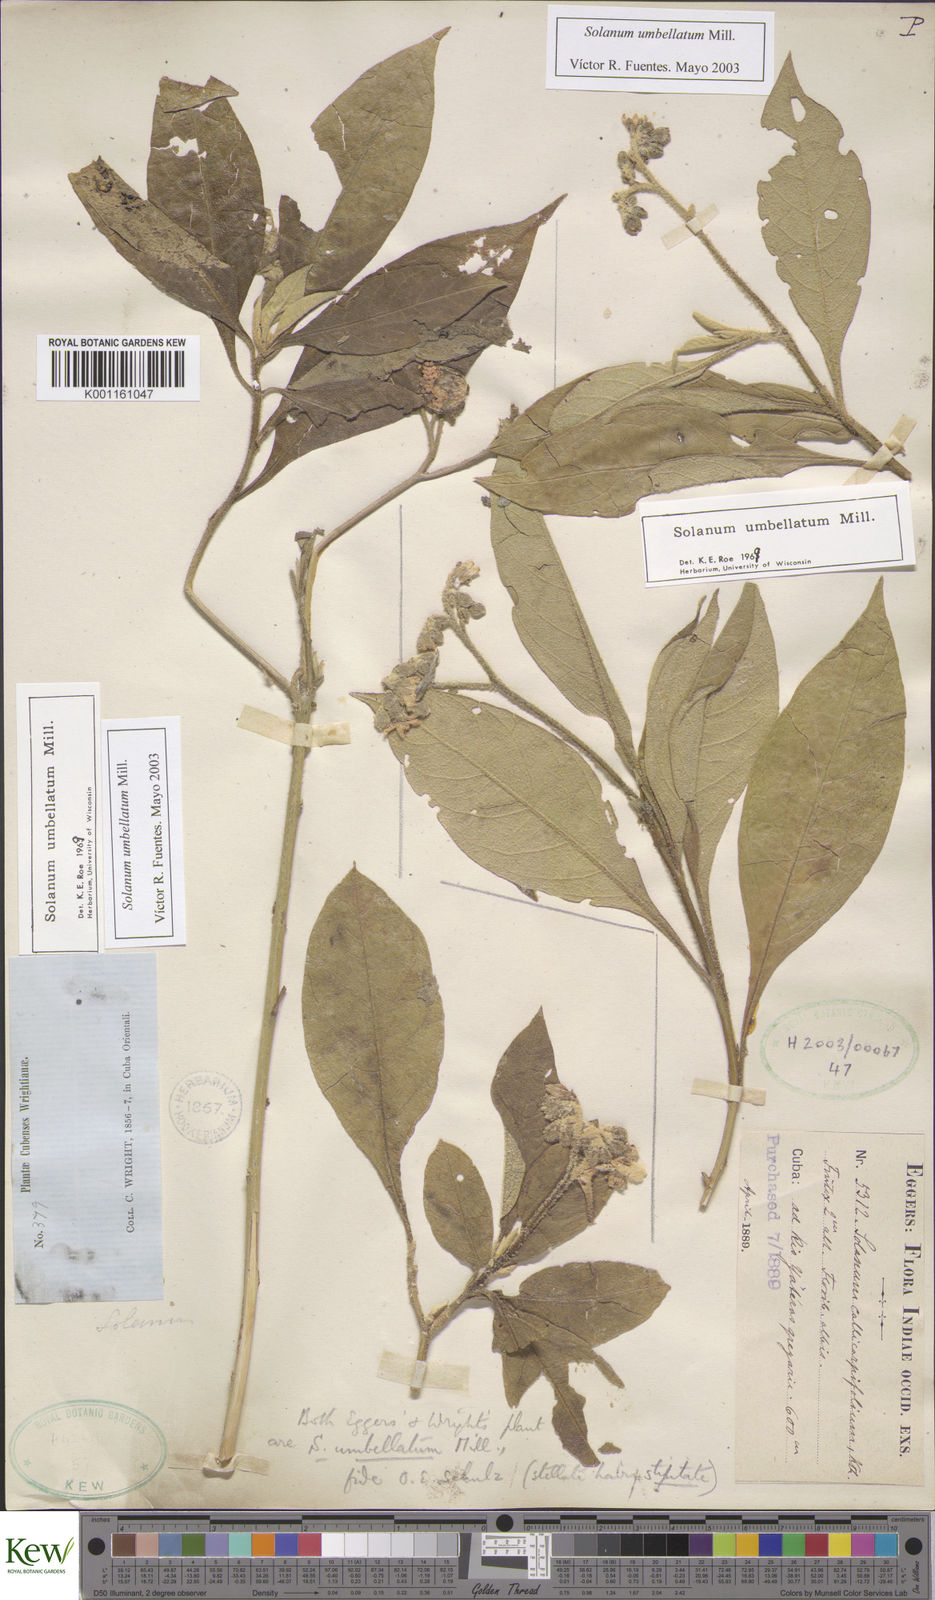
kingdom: Plantae
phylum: Tracheophyta
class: Magnoliopsida
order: Solanales
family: Solanaceae
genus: Solanum
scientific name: Solanum umbellatum
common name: Nightshade
